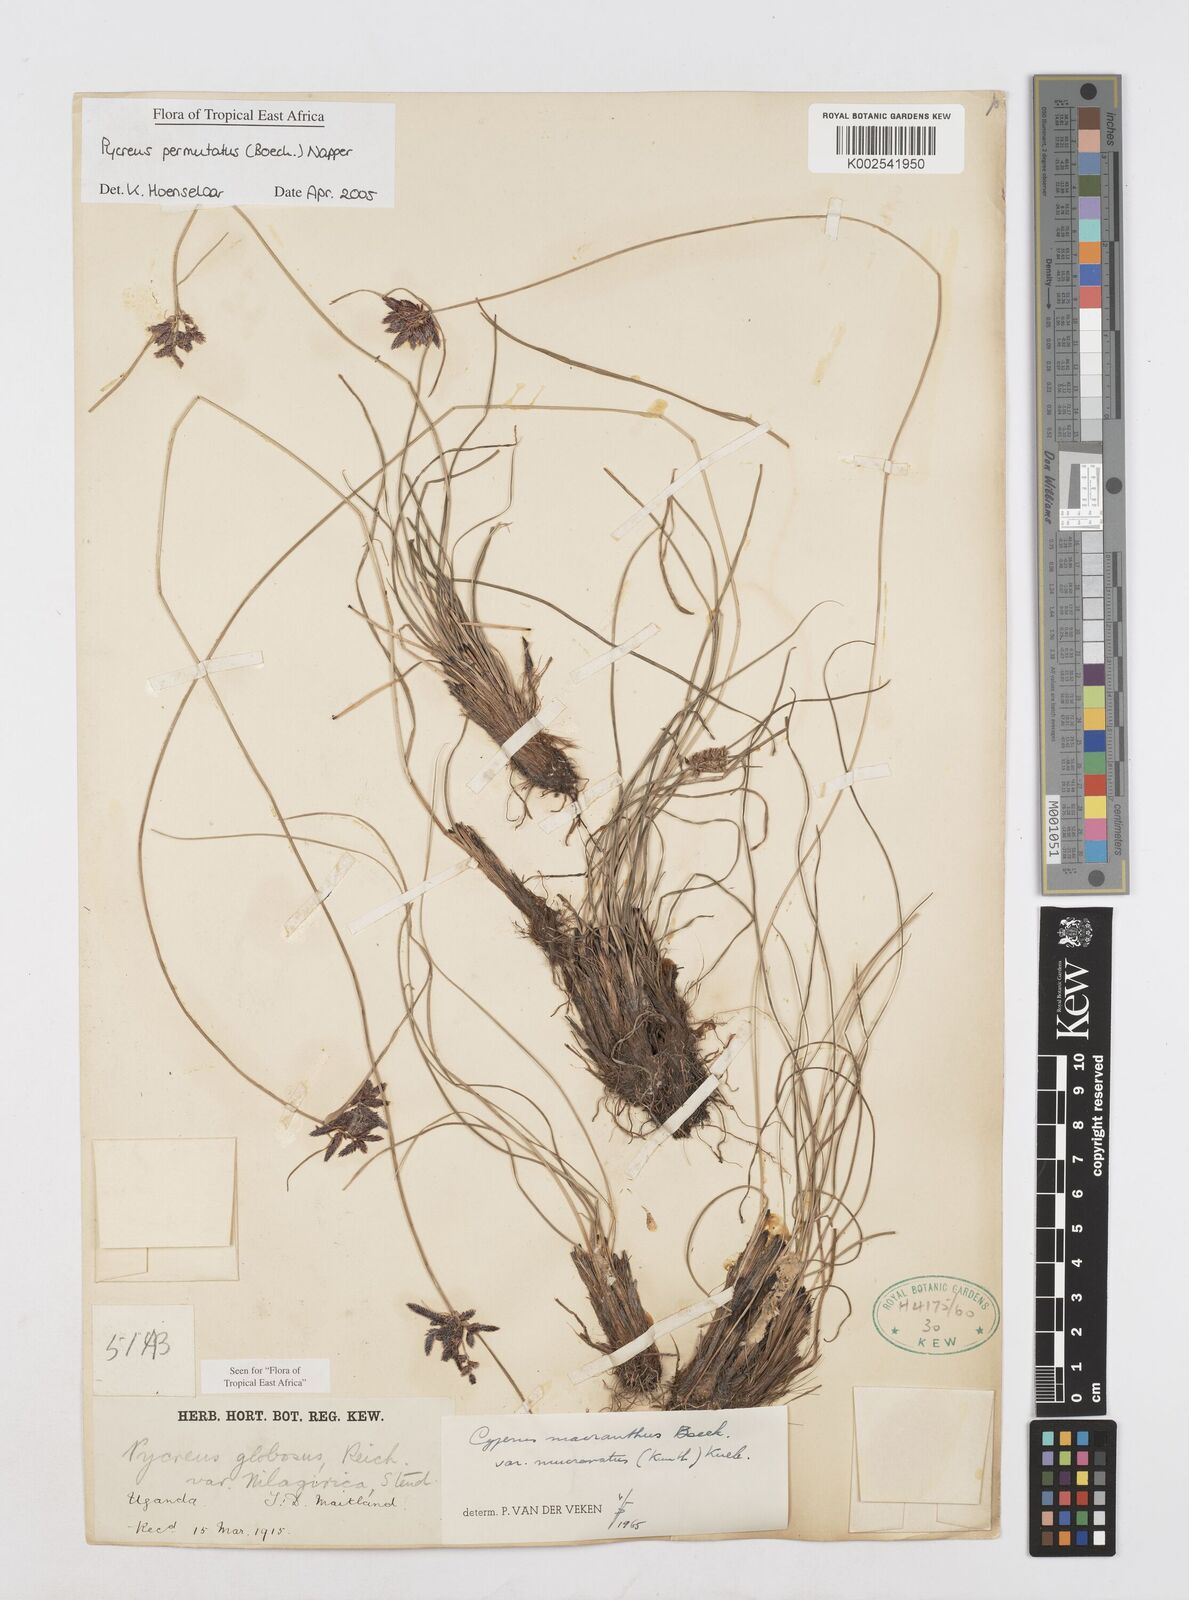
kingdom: Plantae
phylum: Tracheophyta
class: Liliopsida
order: Poales
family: Cyperaceae
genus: Cyperus
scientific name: Cyperus nigricans
